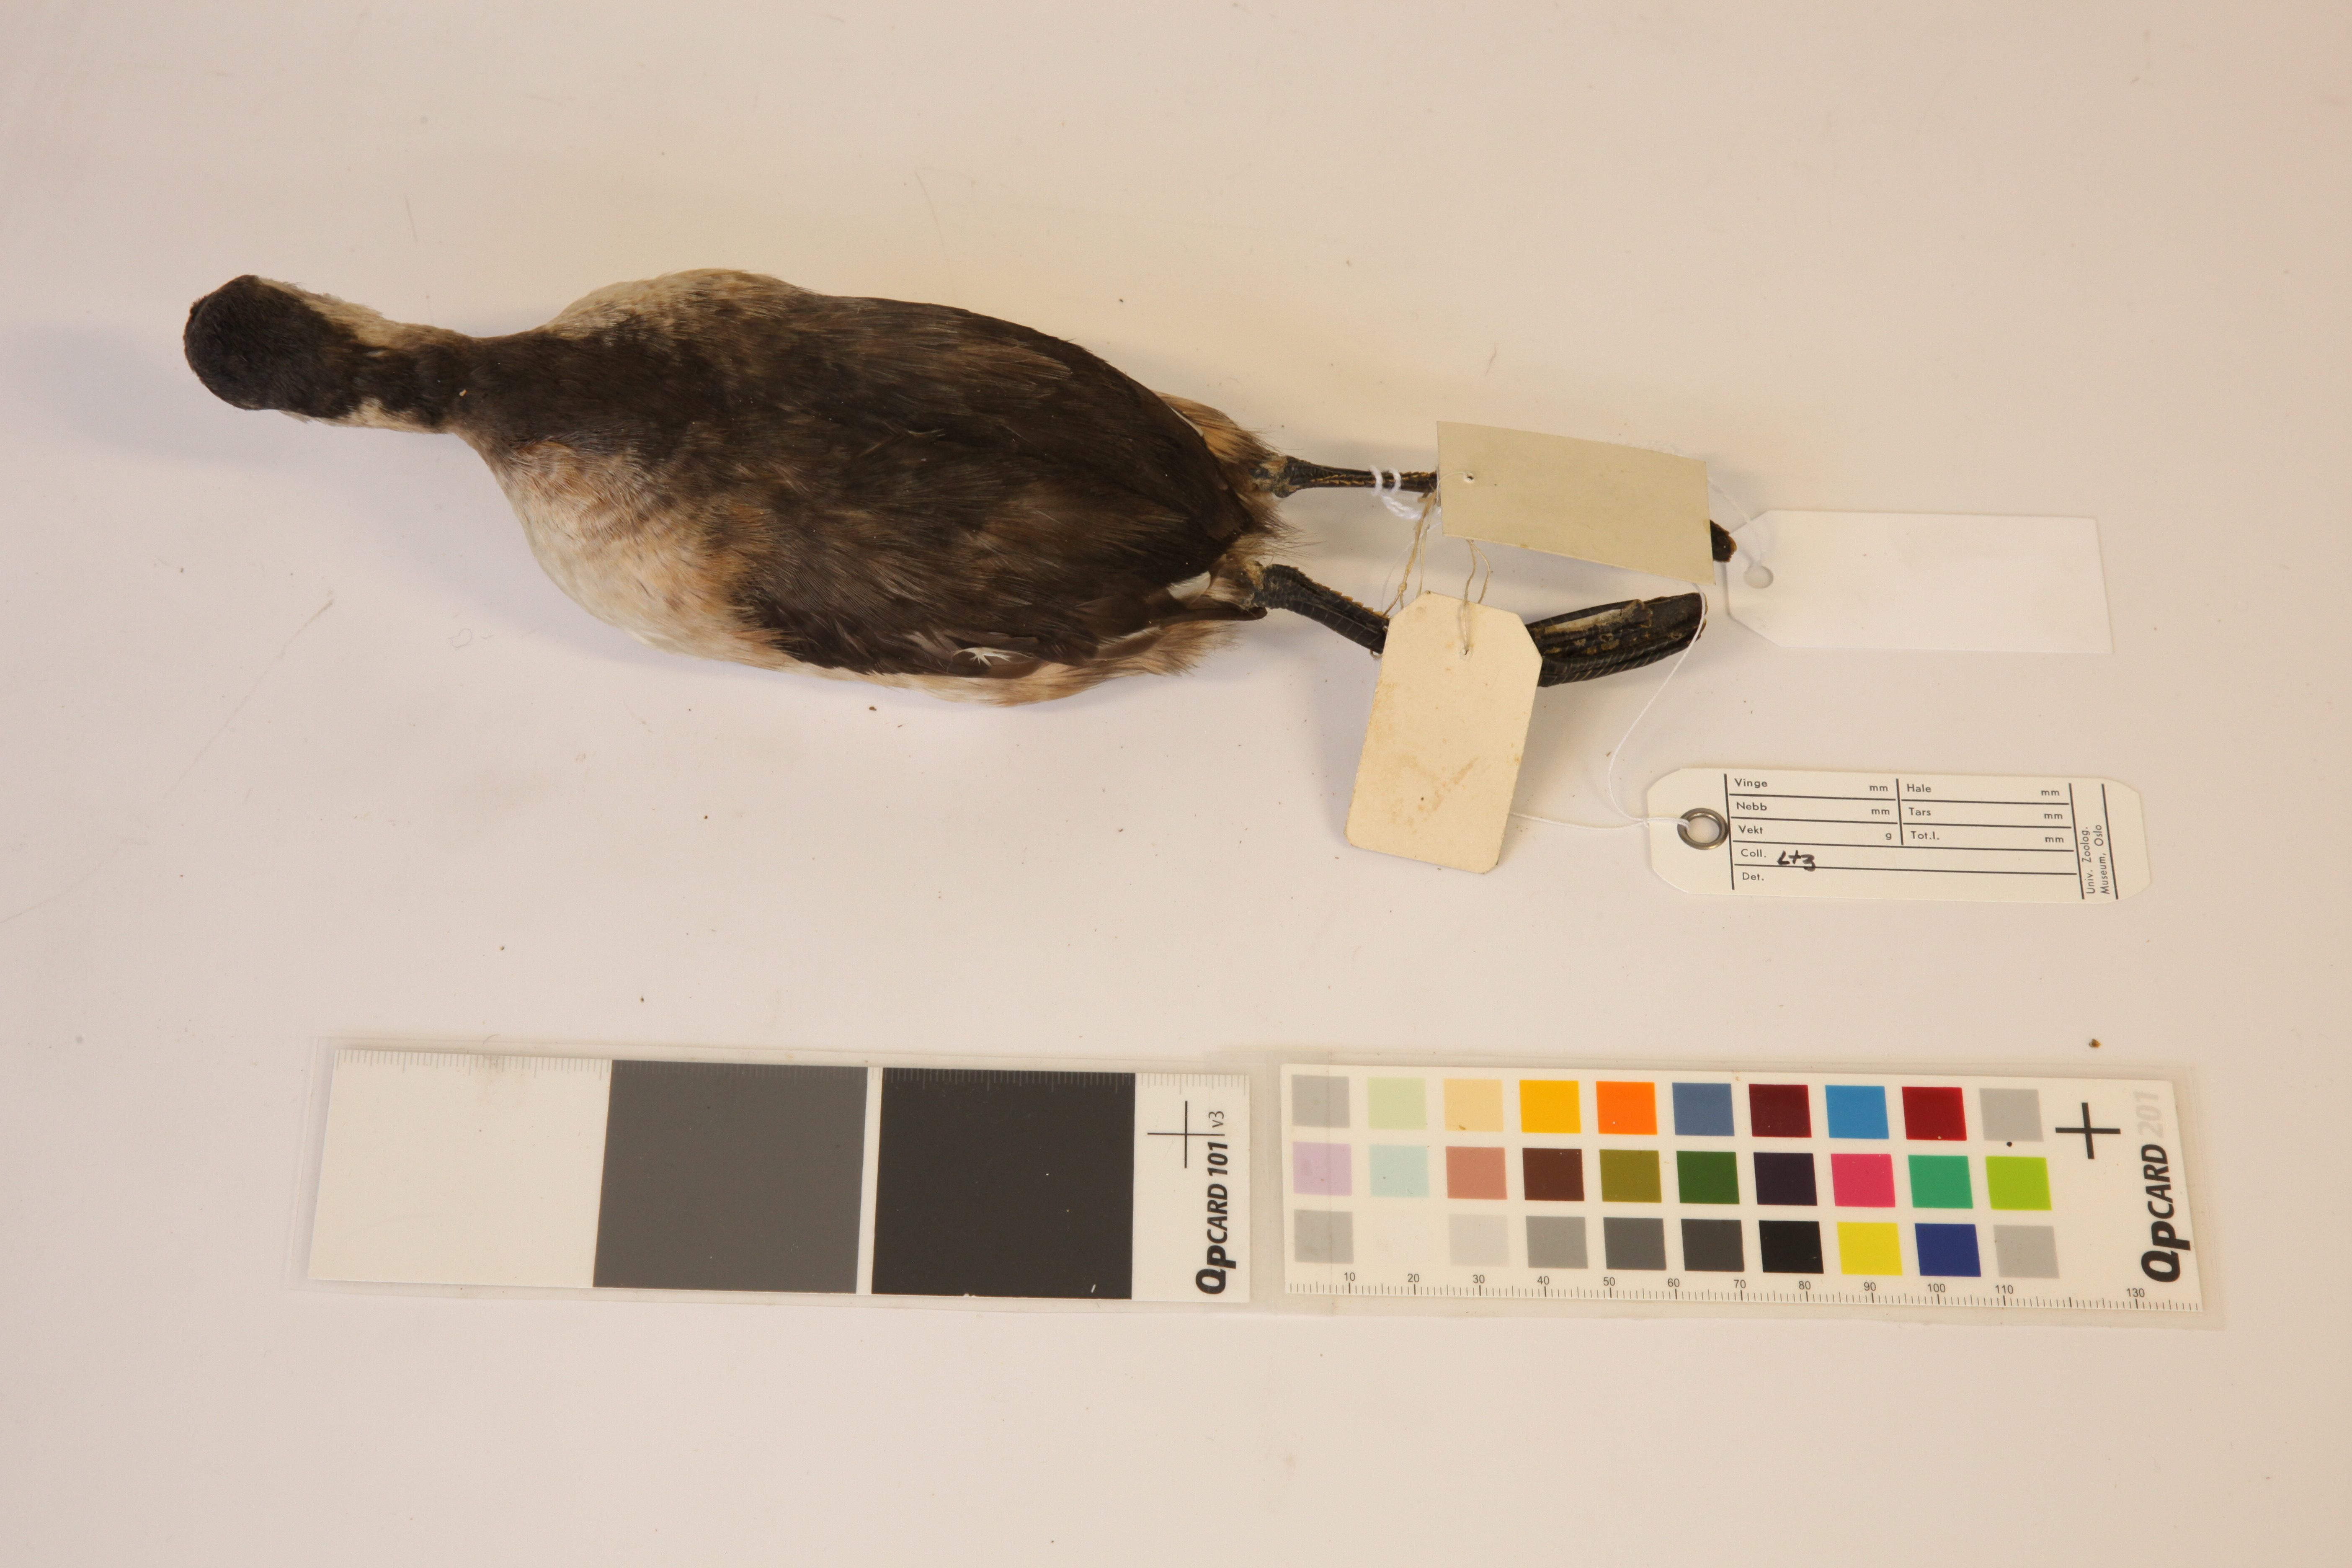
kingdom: Animalia
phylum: Chordata
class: Aves
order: Podicipediformes
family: Podicipedidae
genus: Tachybaptus
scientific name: Tachybaptus novaehollandiae
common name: Australasian grebe
